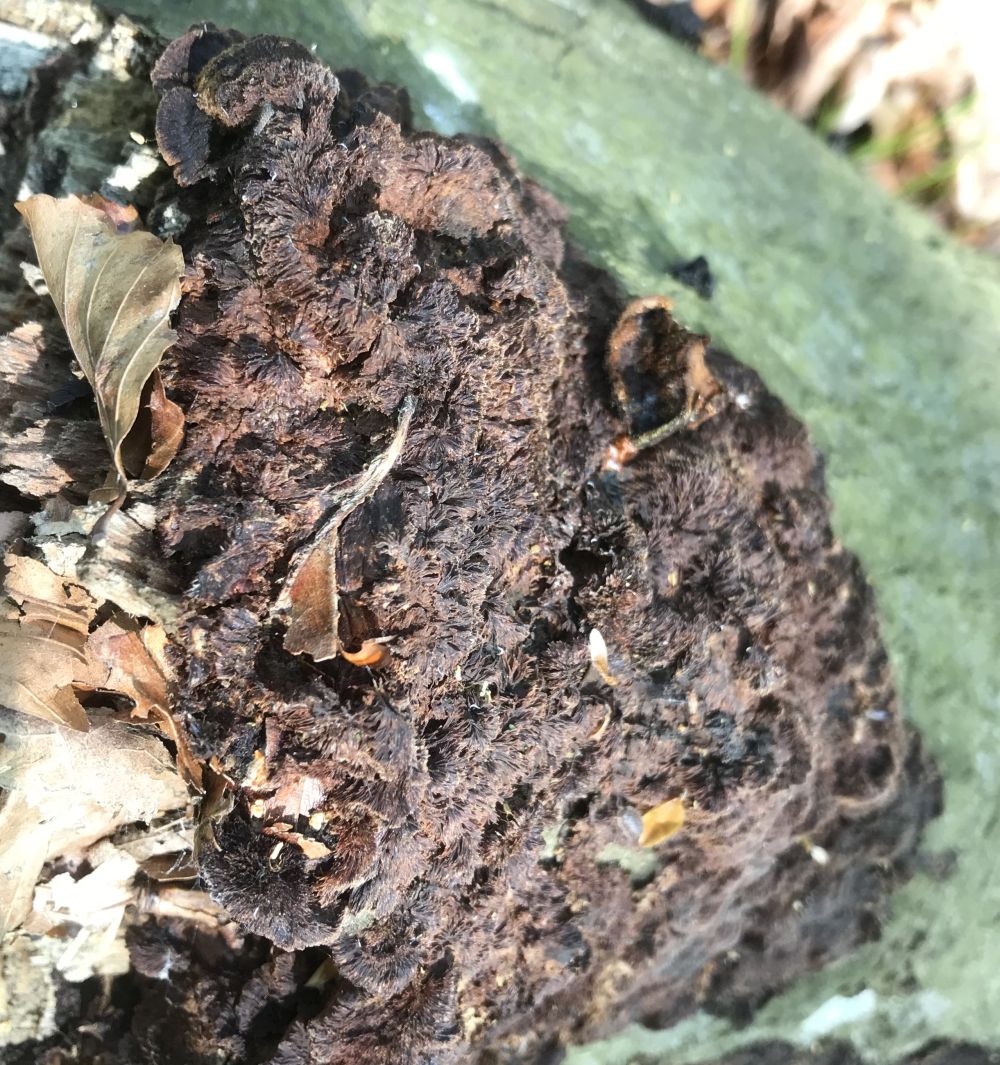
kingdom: Fungi
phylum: Basidiomycota
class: Agaricomycetes
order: Hymenochaetales
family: Hymenochaetaceae
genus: Mensularia
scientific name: Mensularia nodulosa
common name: bøge-spejlporesvamp
